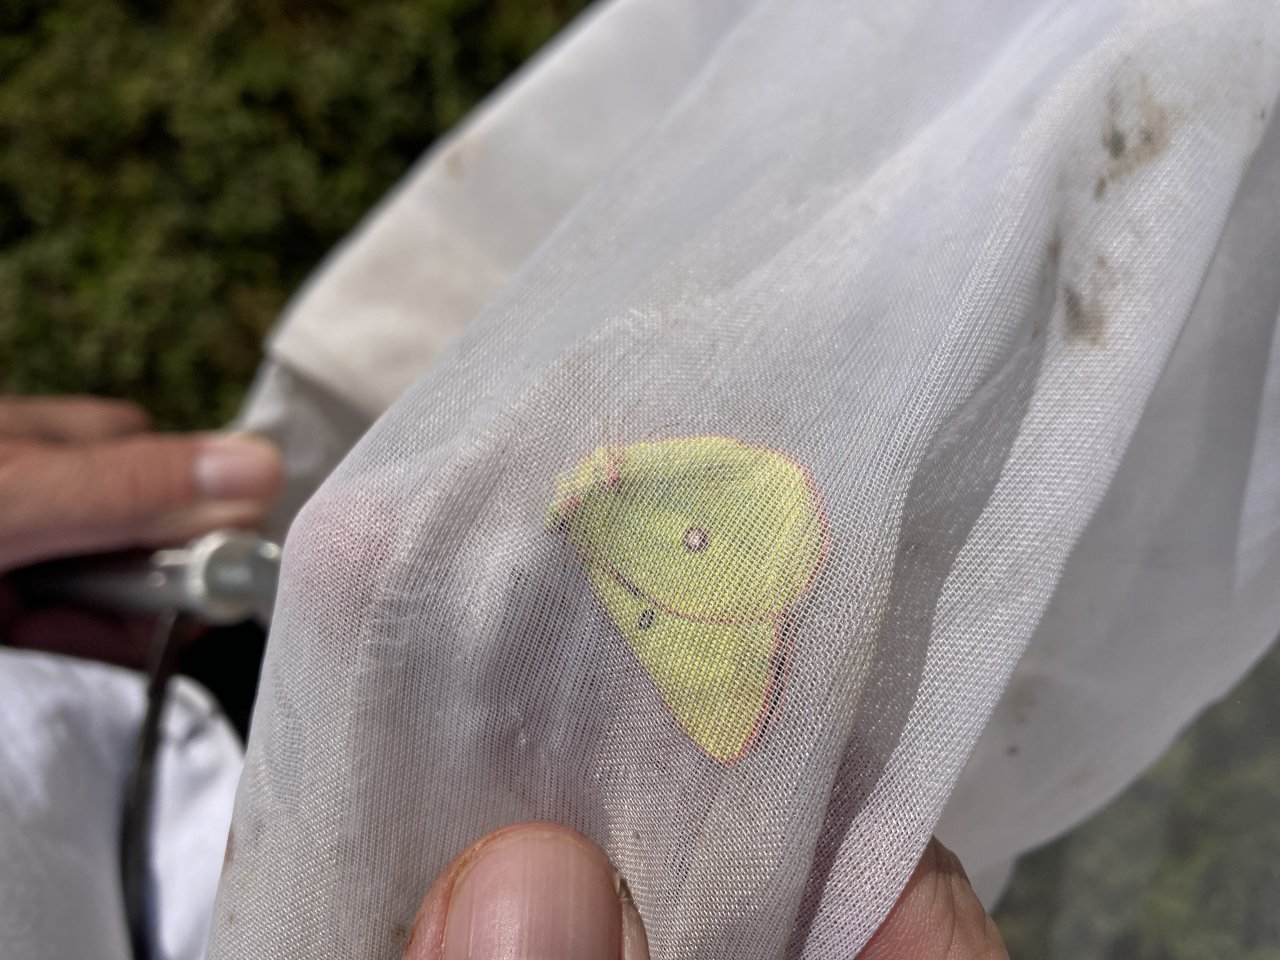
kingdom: Animalia
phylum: Arthropoda
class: Insecta
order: Lepidoptera
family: Pieridae
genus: Colias
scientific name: Colias interior
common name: Pink-edged Sulphur
